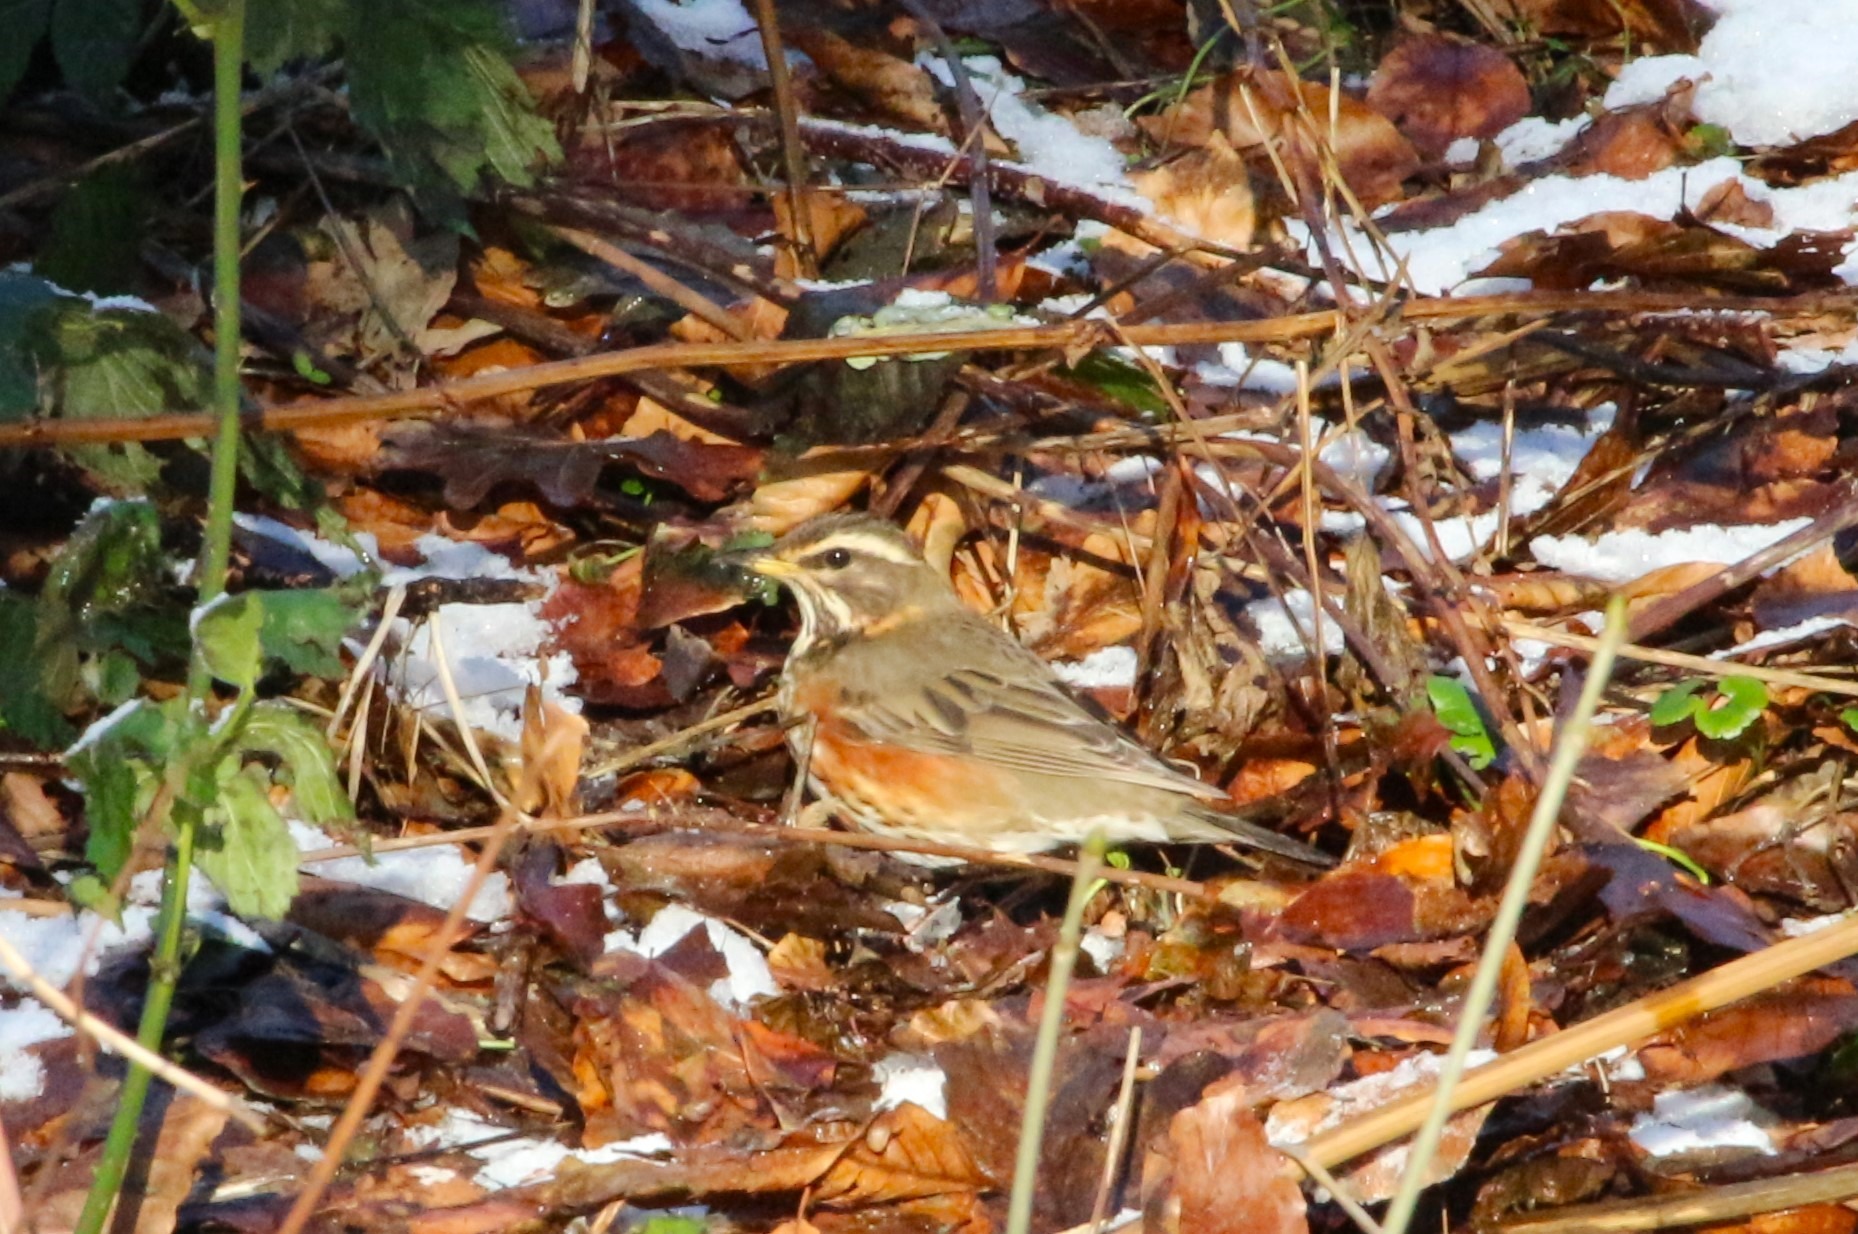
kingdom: Animalia
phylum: Chordata
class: Aves
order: Passeriformes
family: Turdidae
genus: Turdus
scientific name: Turdus iliacus
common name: Vindrossel
